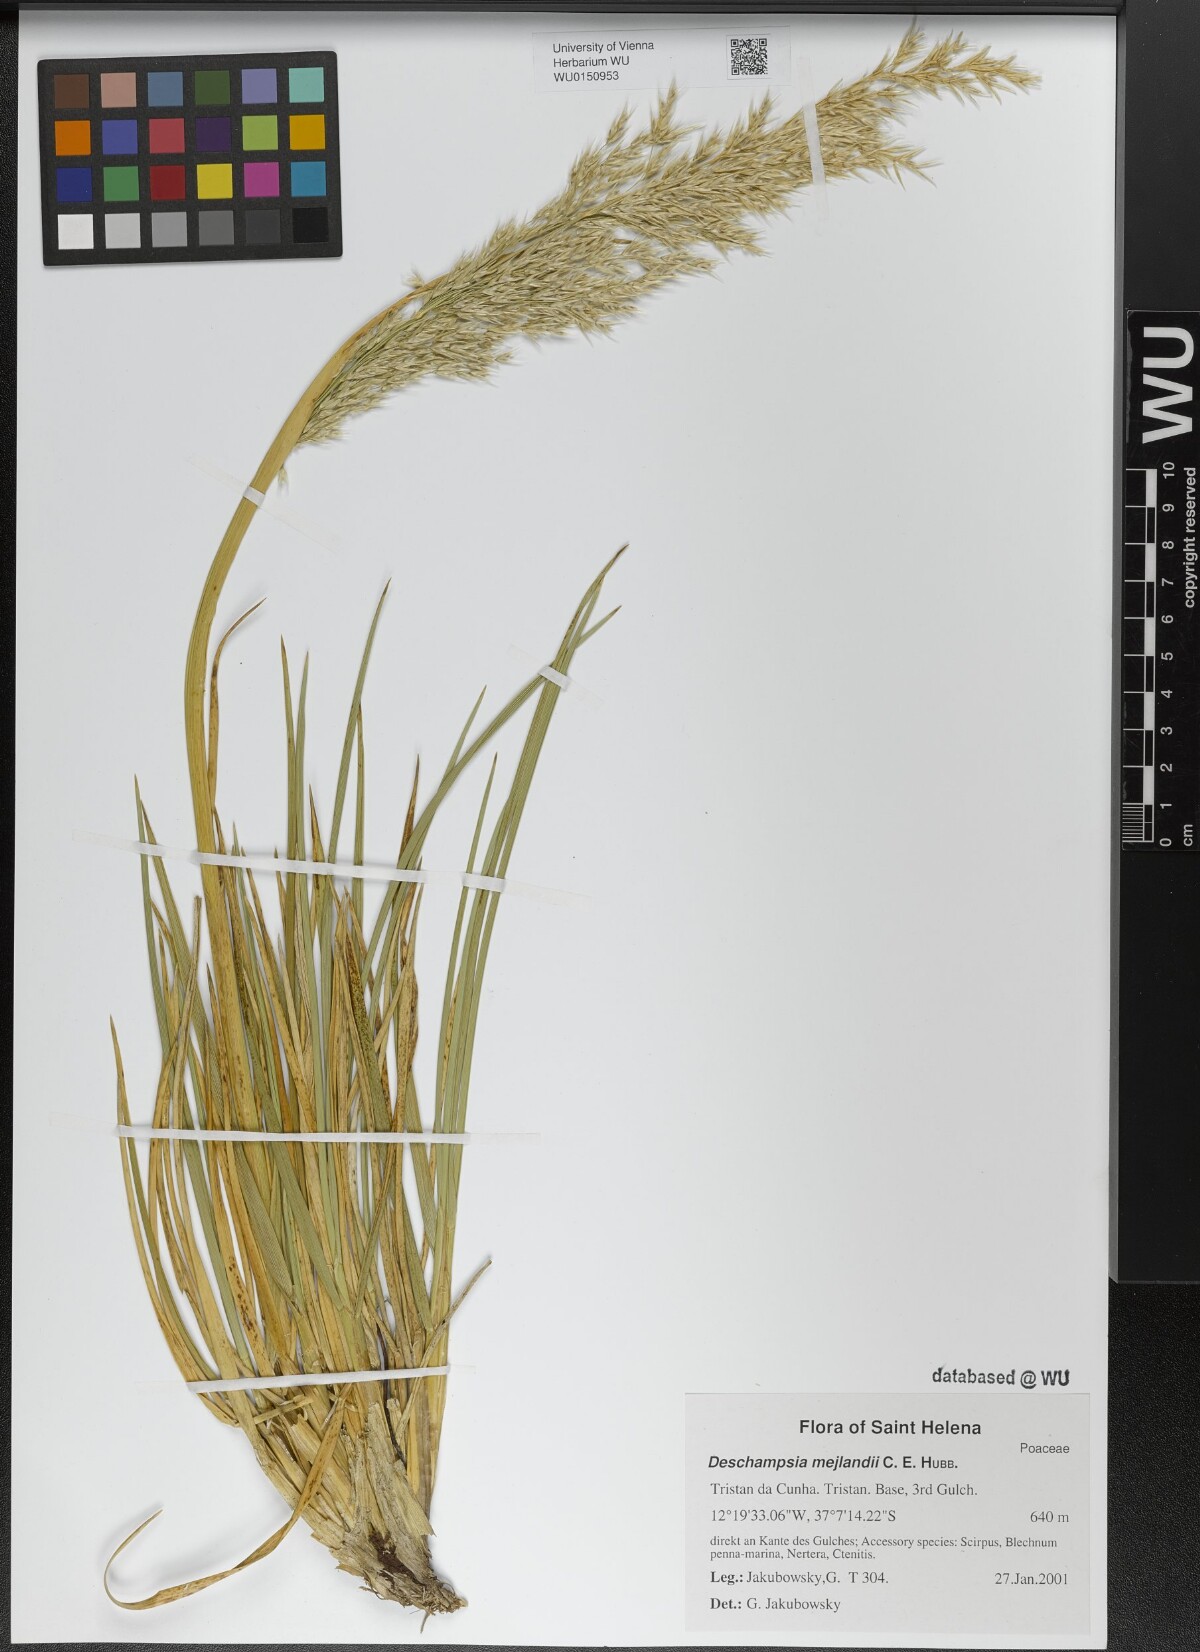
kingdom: Plantae
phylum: Tracheophyta
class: Liliopsida
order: Poales
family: Poaceae
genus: Deschampsia
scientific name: Deschampsia mejlandii
